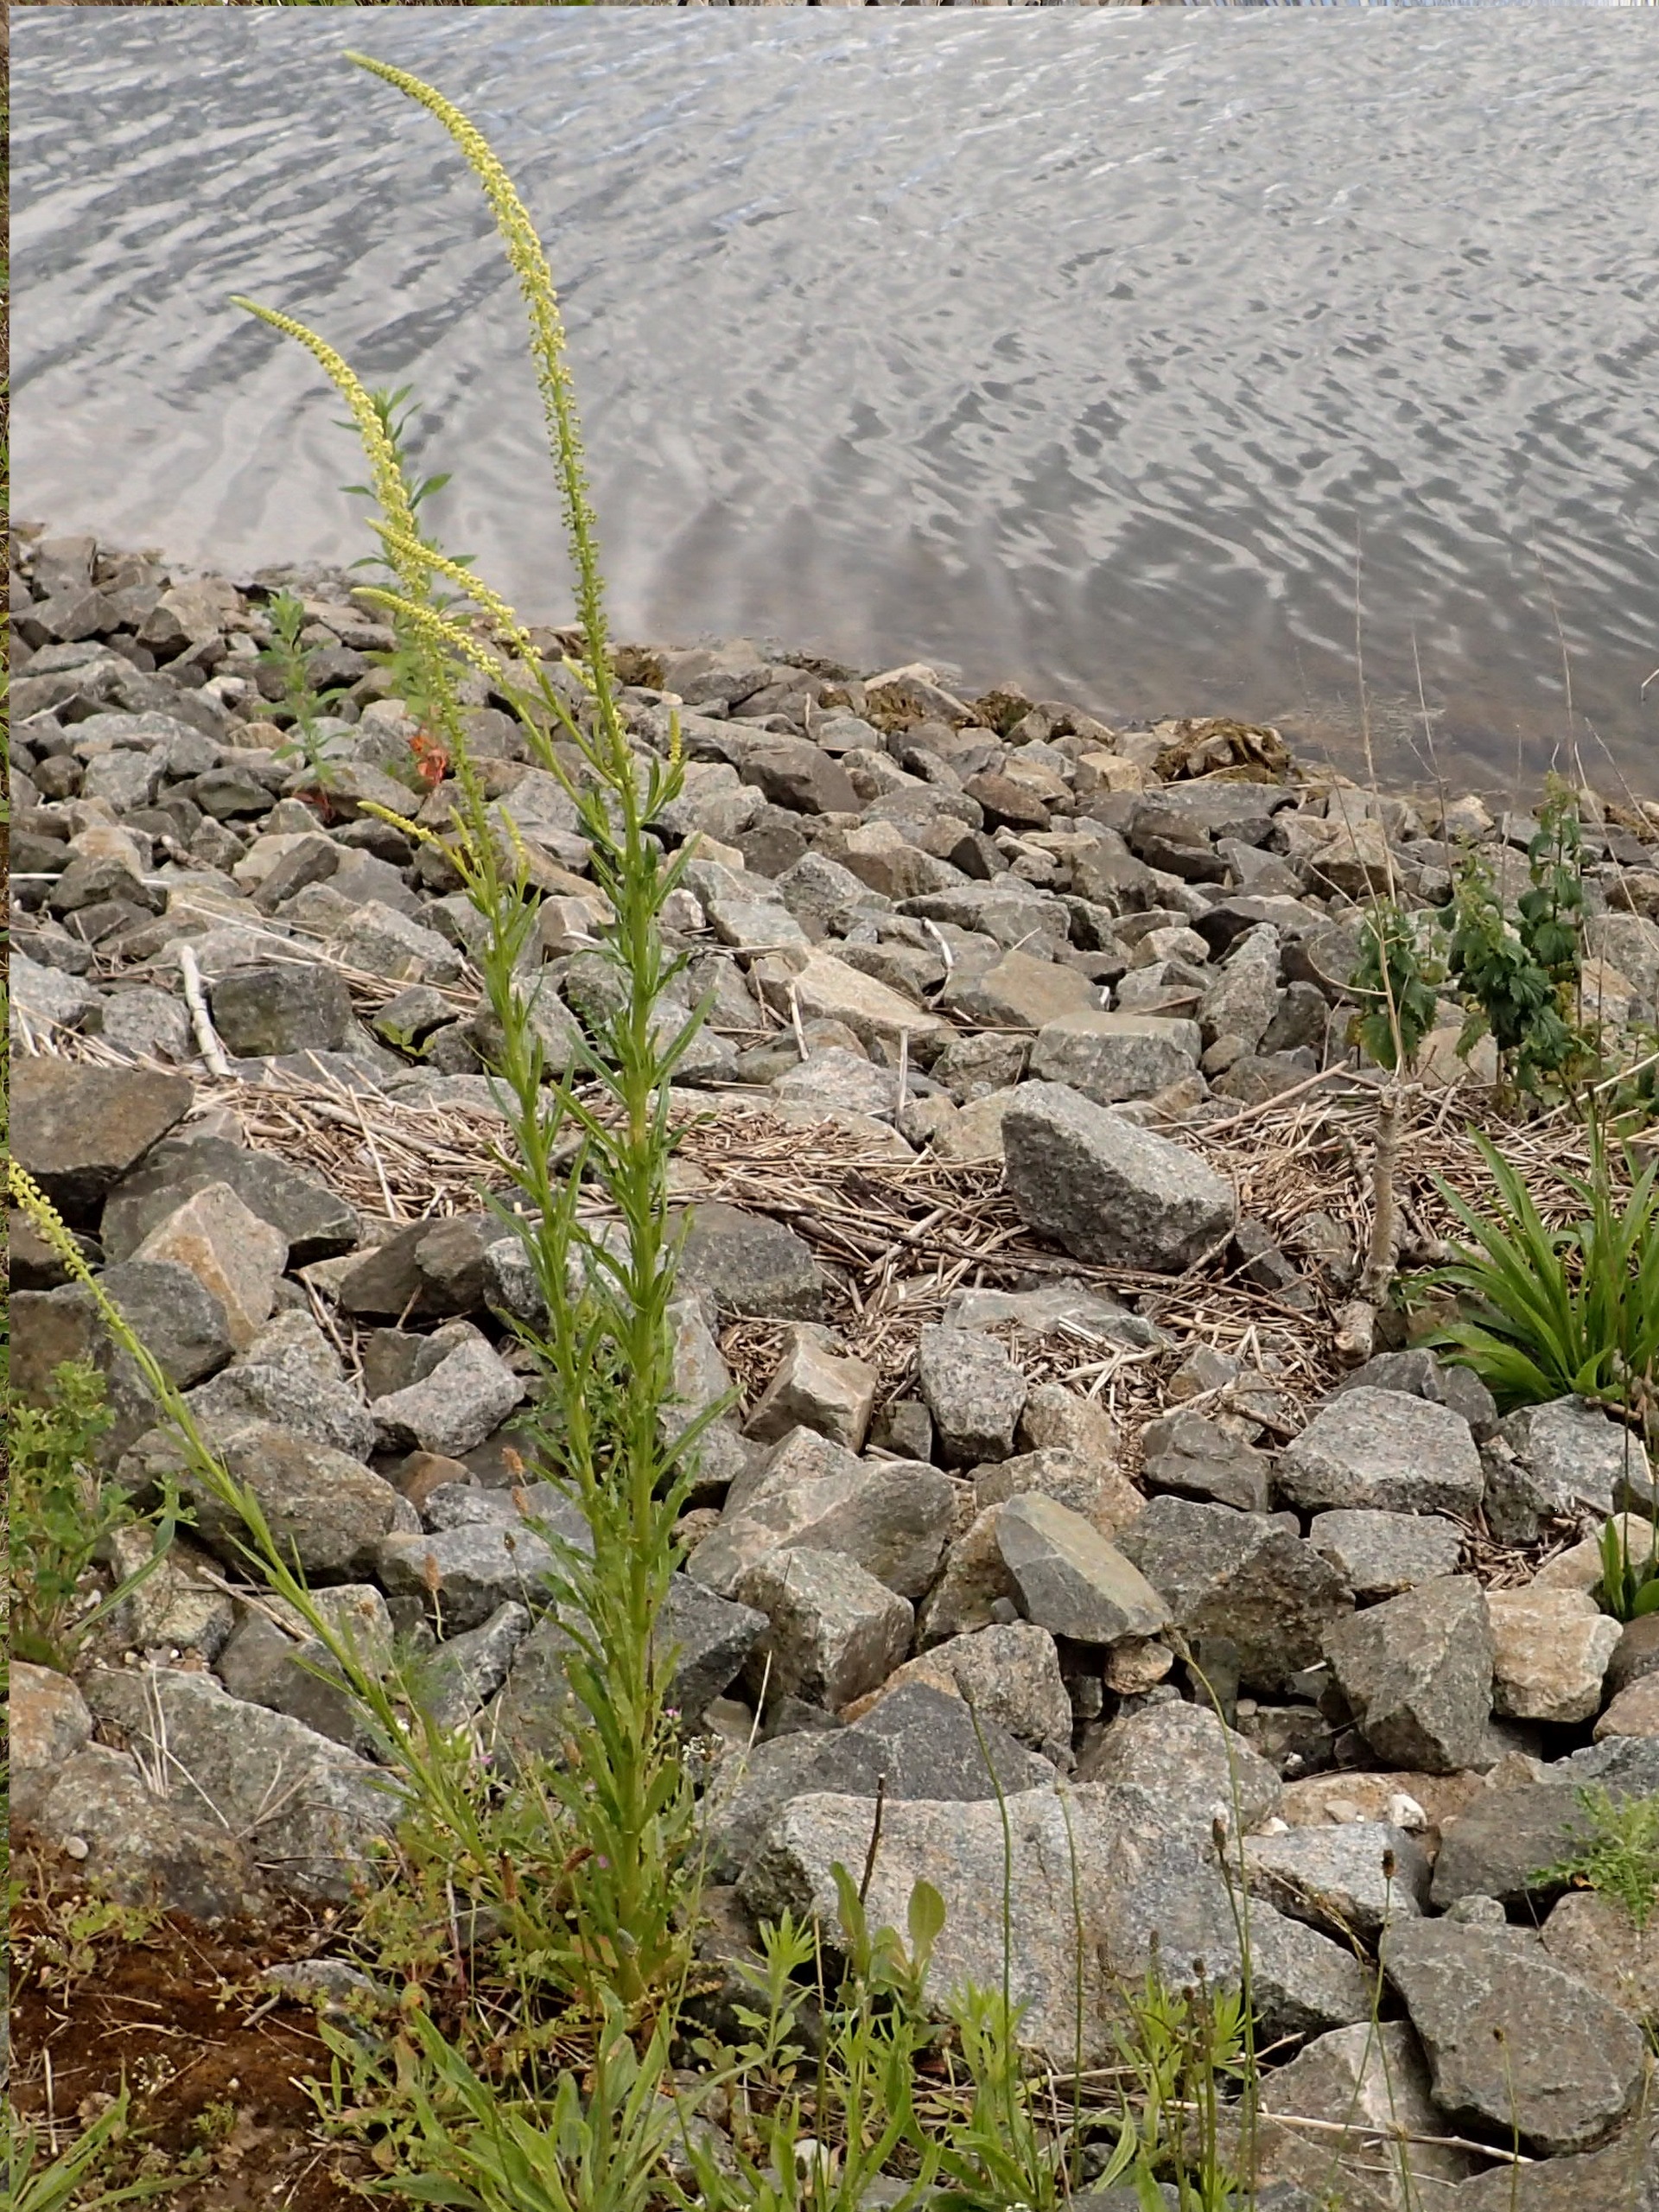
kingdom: Plantae
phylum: Tracheophyta
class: Magnoliopsida
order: Brassicales
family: Resedaceae
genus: Reseda
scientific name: Reseda luteola
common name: Farve-reseda
